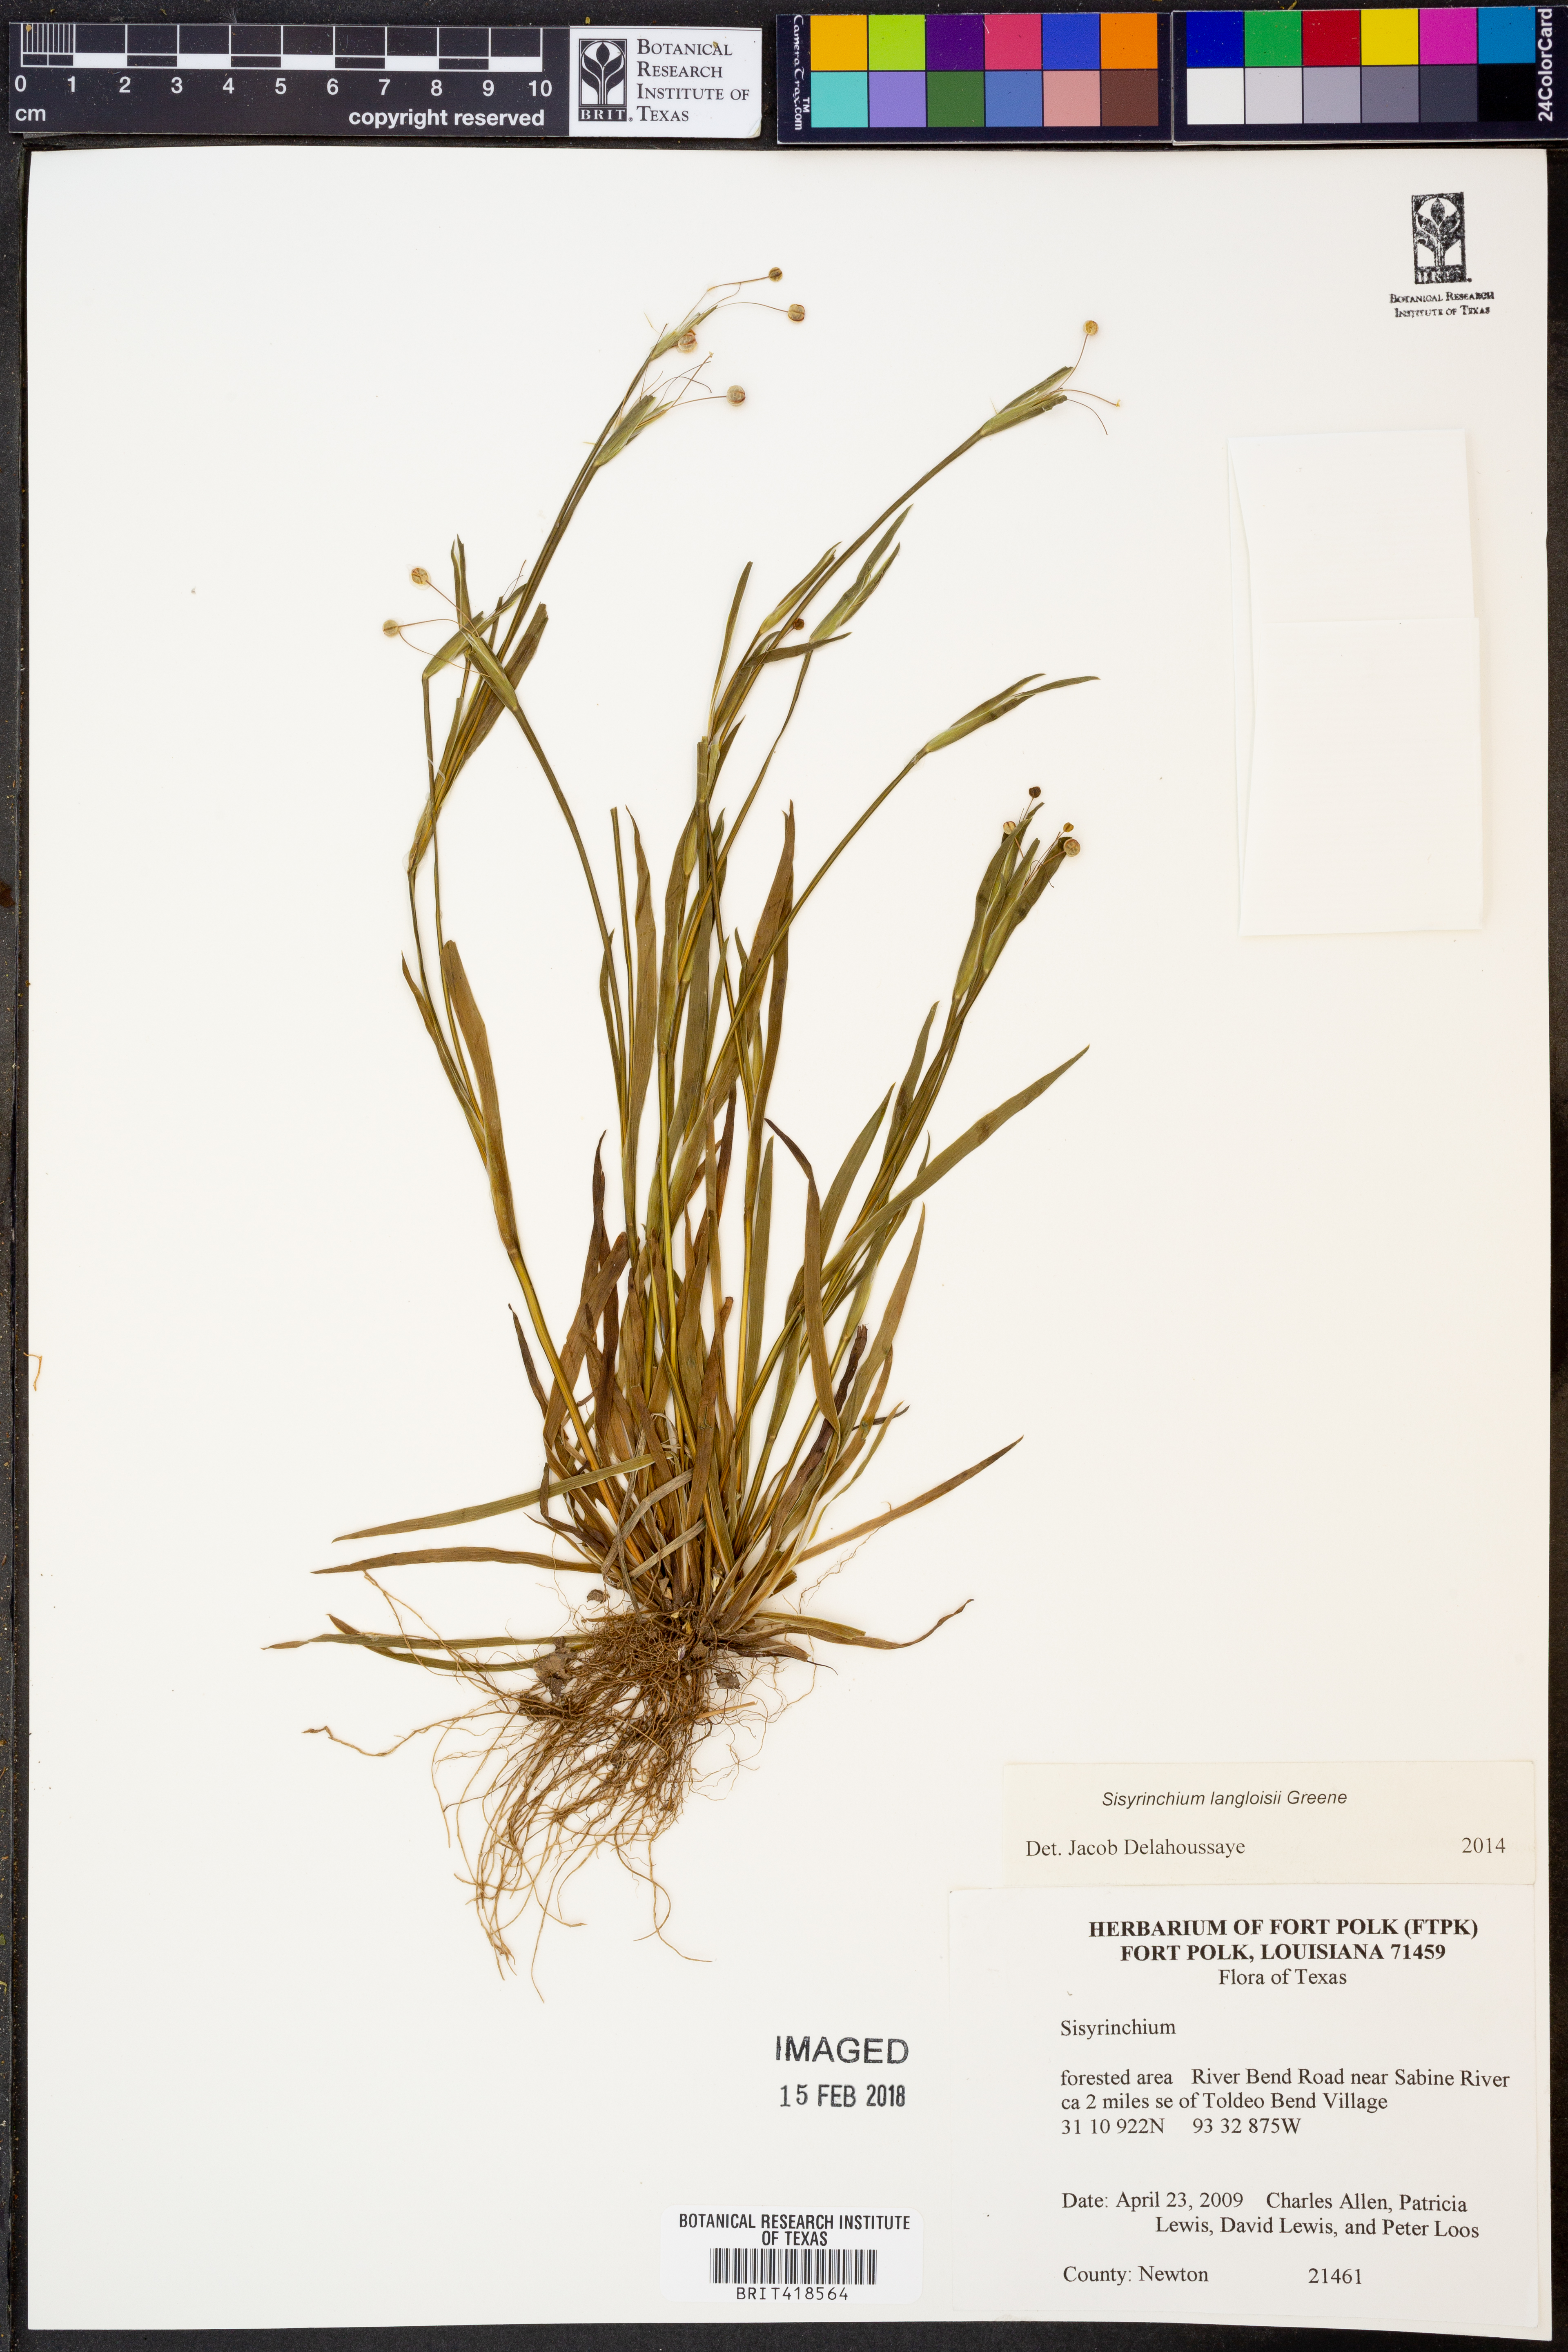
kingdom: Plantae
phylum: Tracheophyta
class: Liliopsida
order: Asparagales
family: Iridaceae
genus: Sisyrinchium
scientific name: Sisyrinchium langloisii
